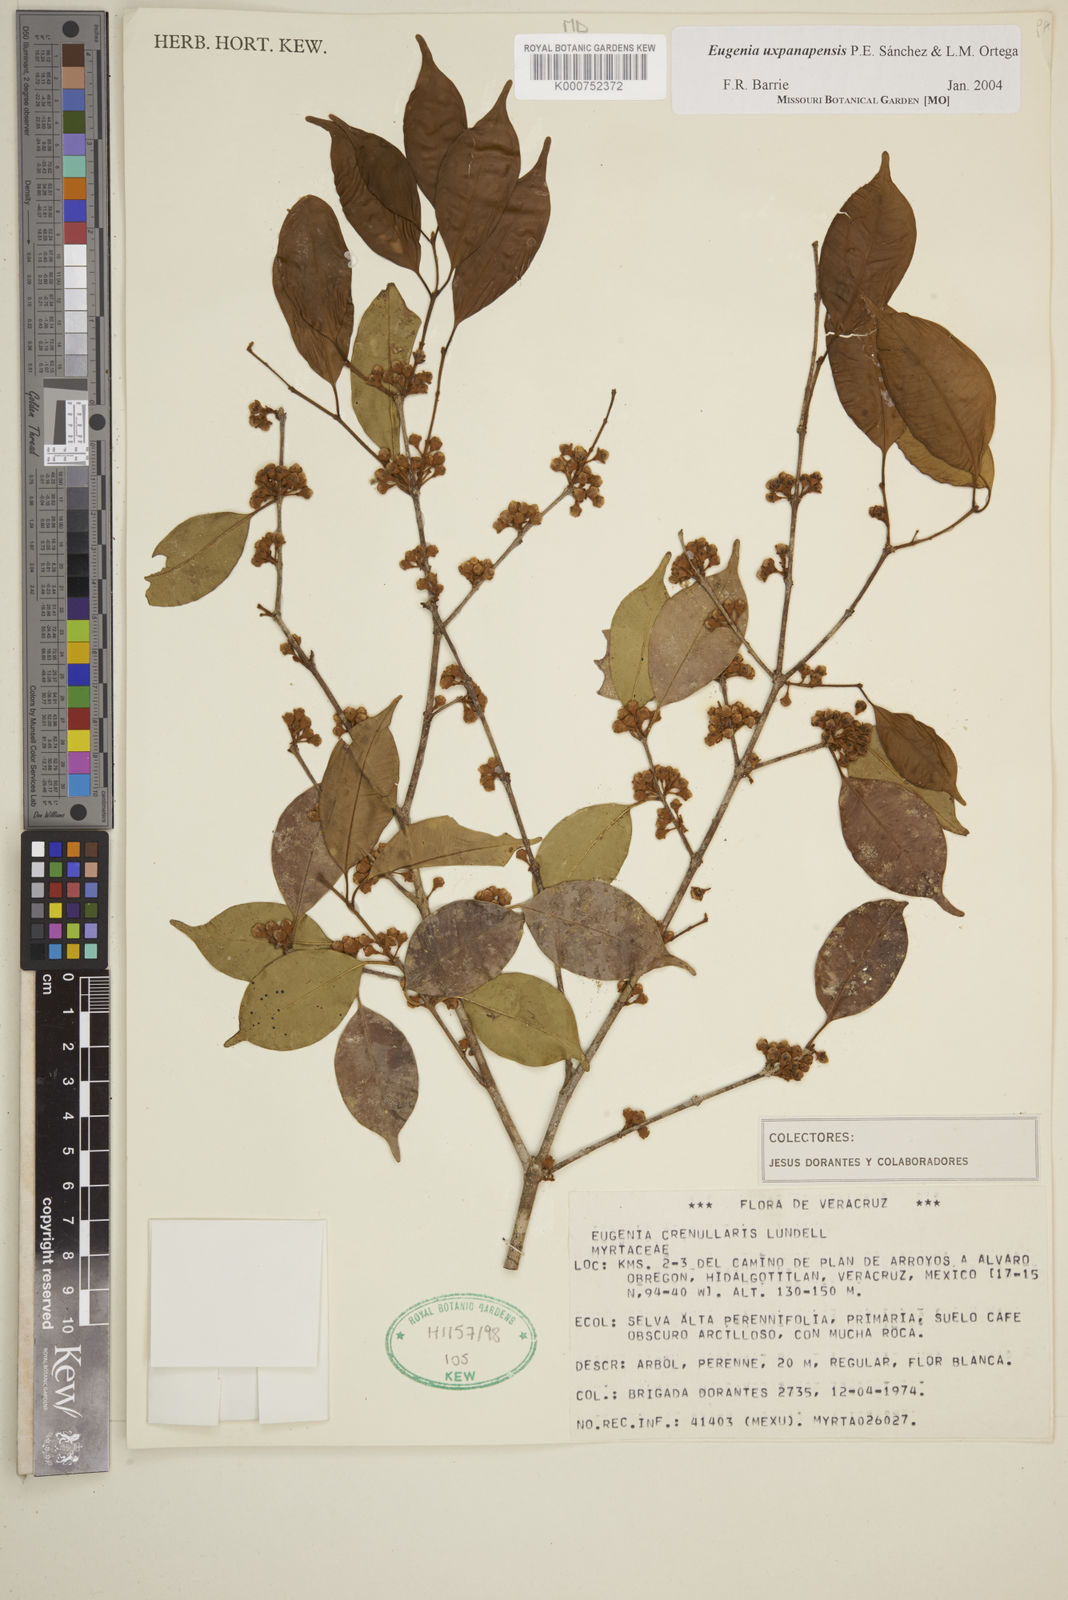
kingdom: Plantae
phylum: Tracheophyta
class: Magnoliopsida
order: Myrtales
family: Myrtaceae
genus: Eugenia
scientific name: Eugenia
